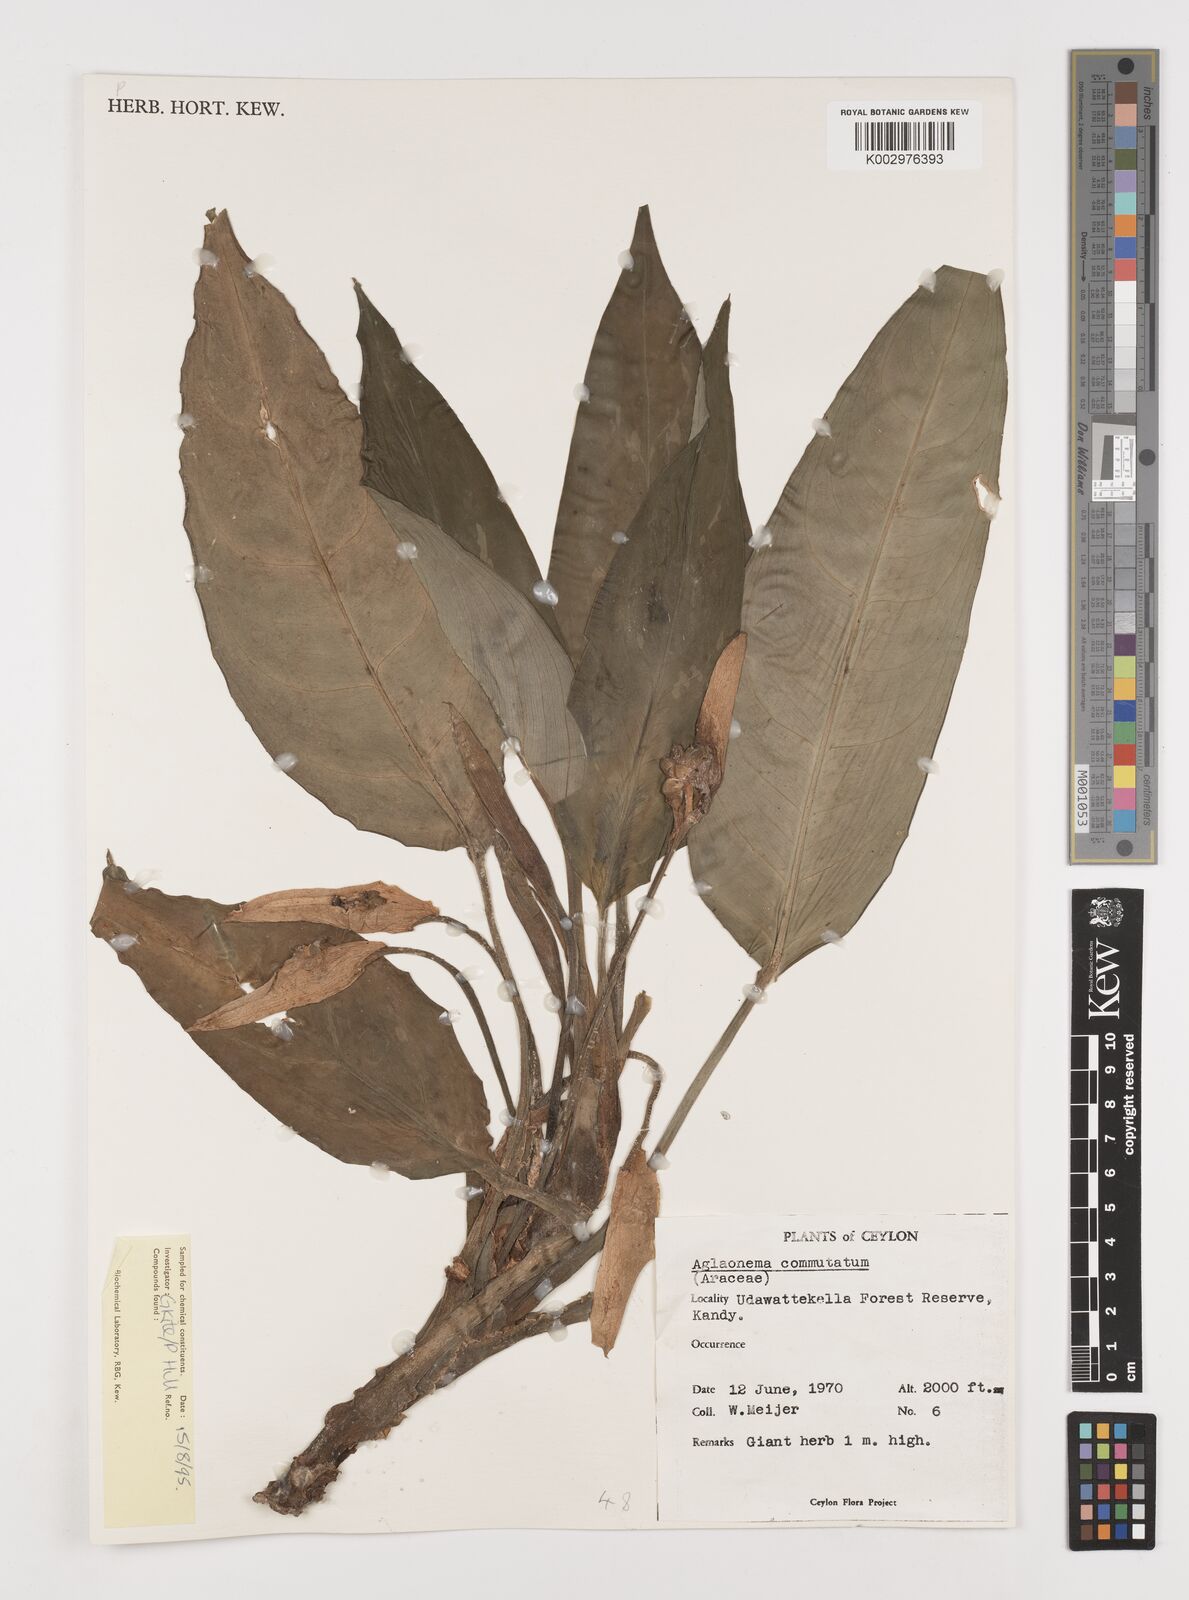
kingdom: Plantae
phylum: Tracheophyta
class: Liliopsida
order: Alismatales
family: Araceae
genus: Aglaonema
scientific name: Aglaonema commutatum
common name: Philippine evergreen
